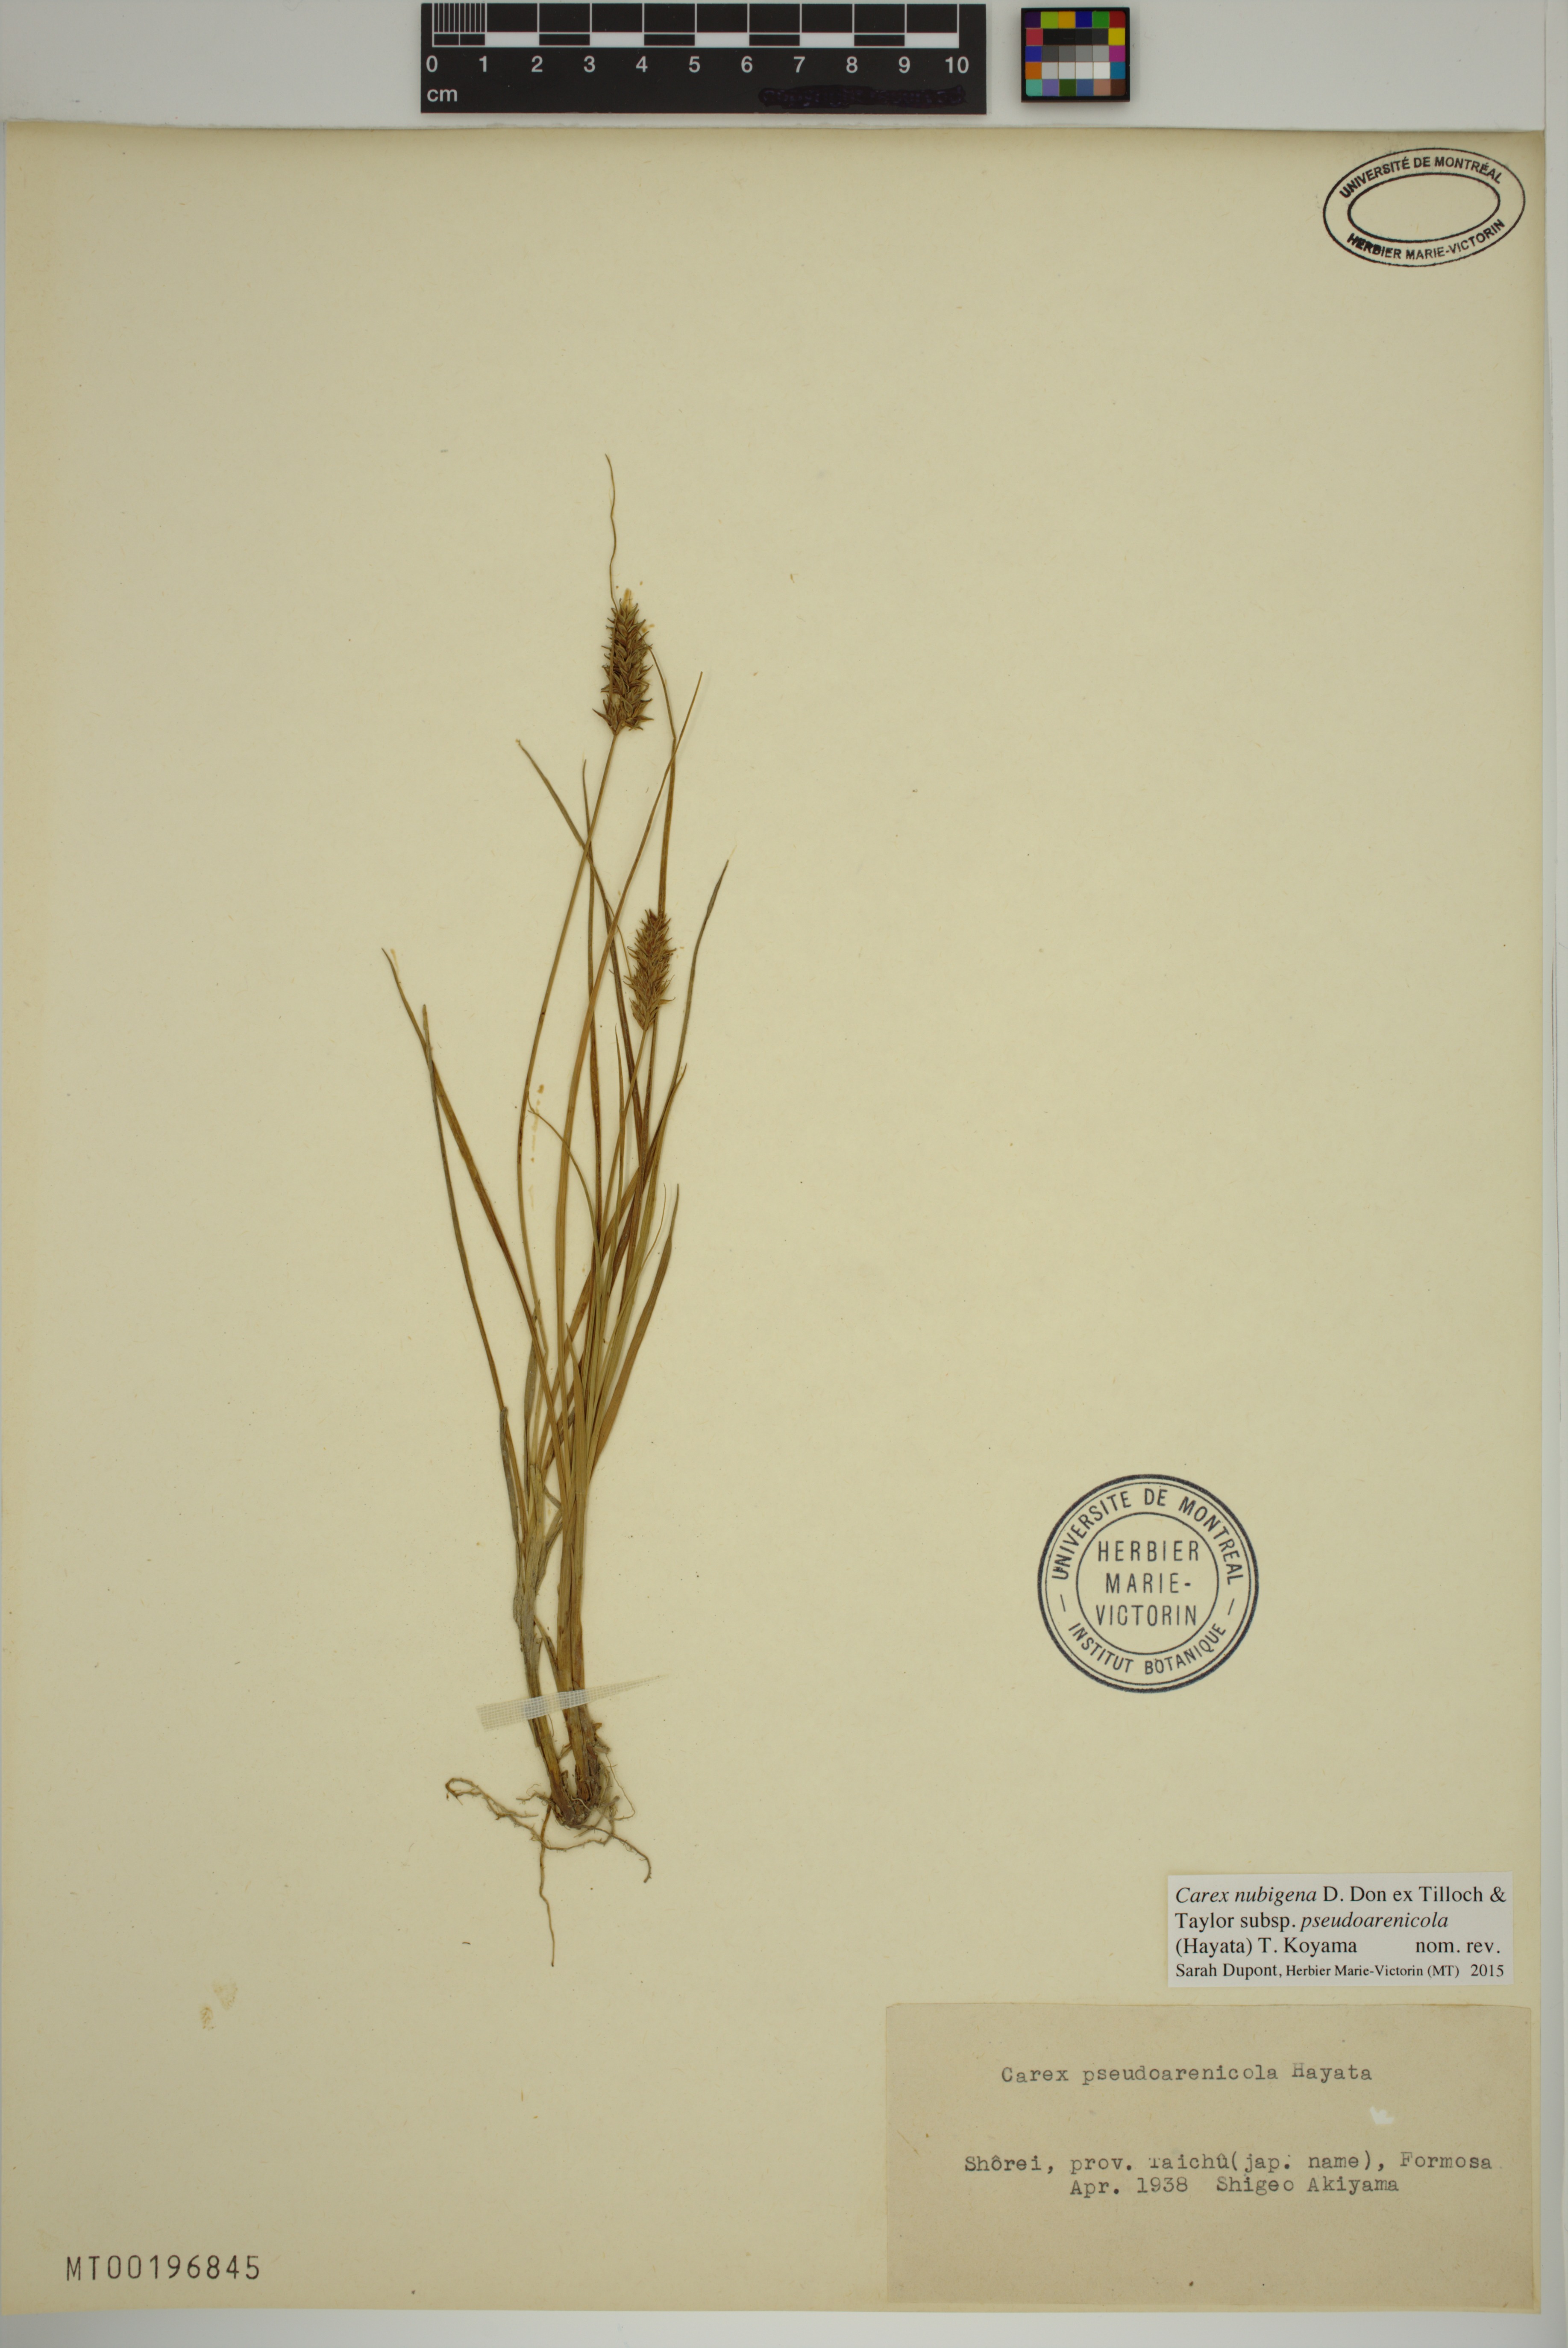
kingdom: Plantae
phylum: Tracheophyta
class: Liliopsida
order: Poales
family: Cyperaceae
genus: Carex
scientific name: Carex nubigena
